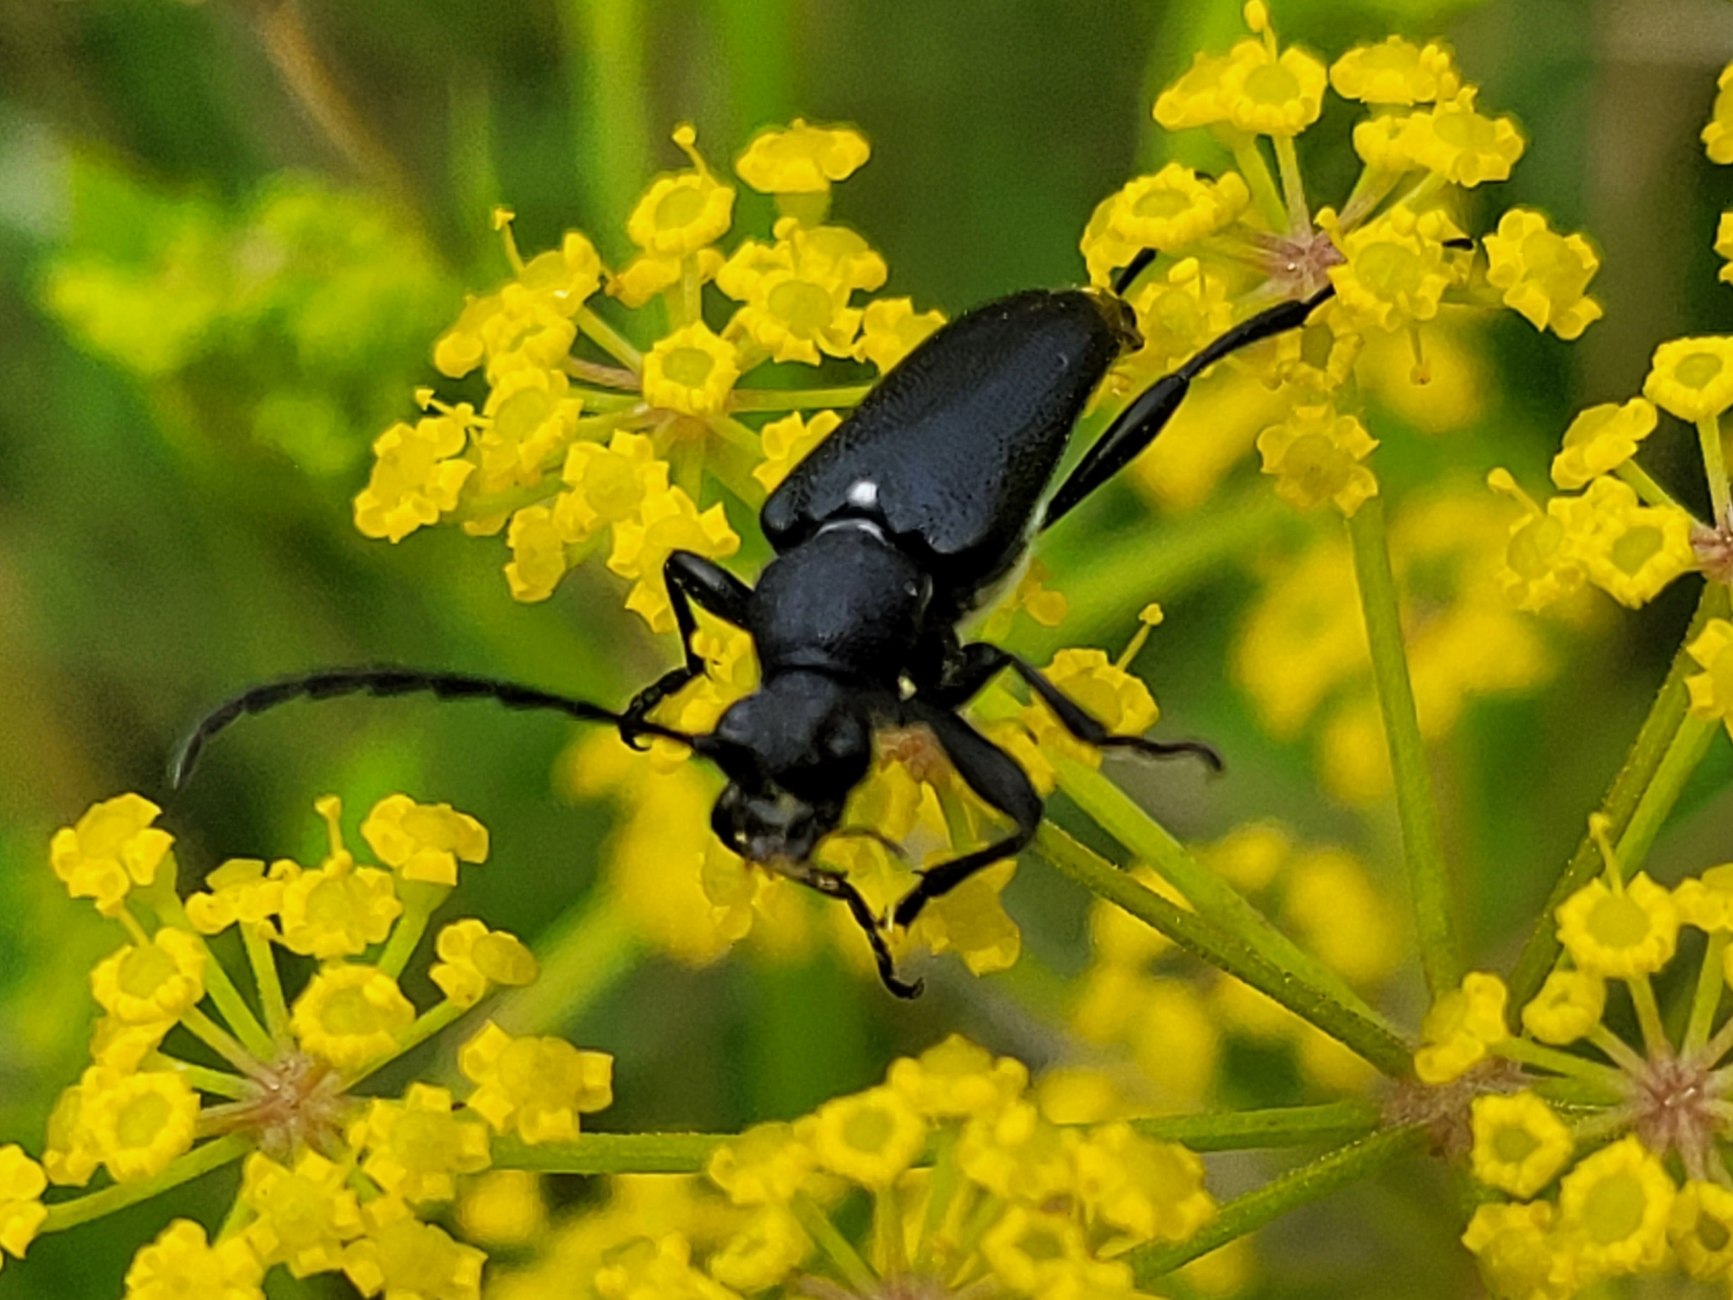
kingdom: Animalia
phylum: Arthropoda
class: Insecta
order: Coleoptera
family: Cerambycidae
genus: Stictoleptura
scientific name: Stictoleptura scutellata
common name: Sort blomsterbuk
